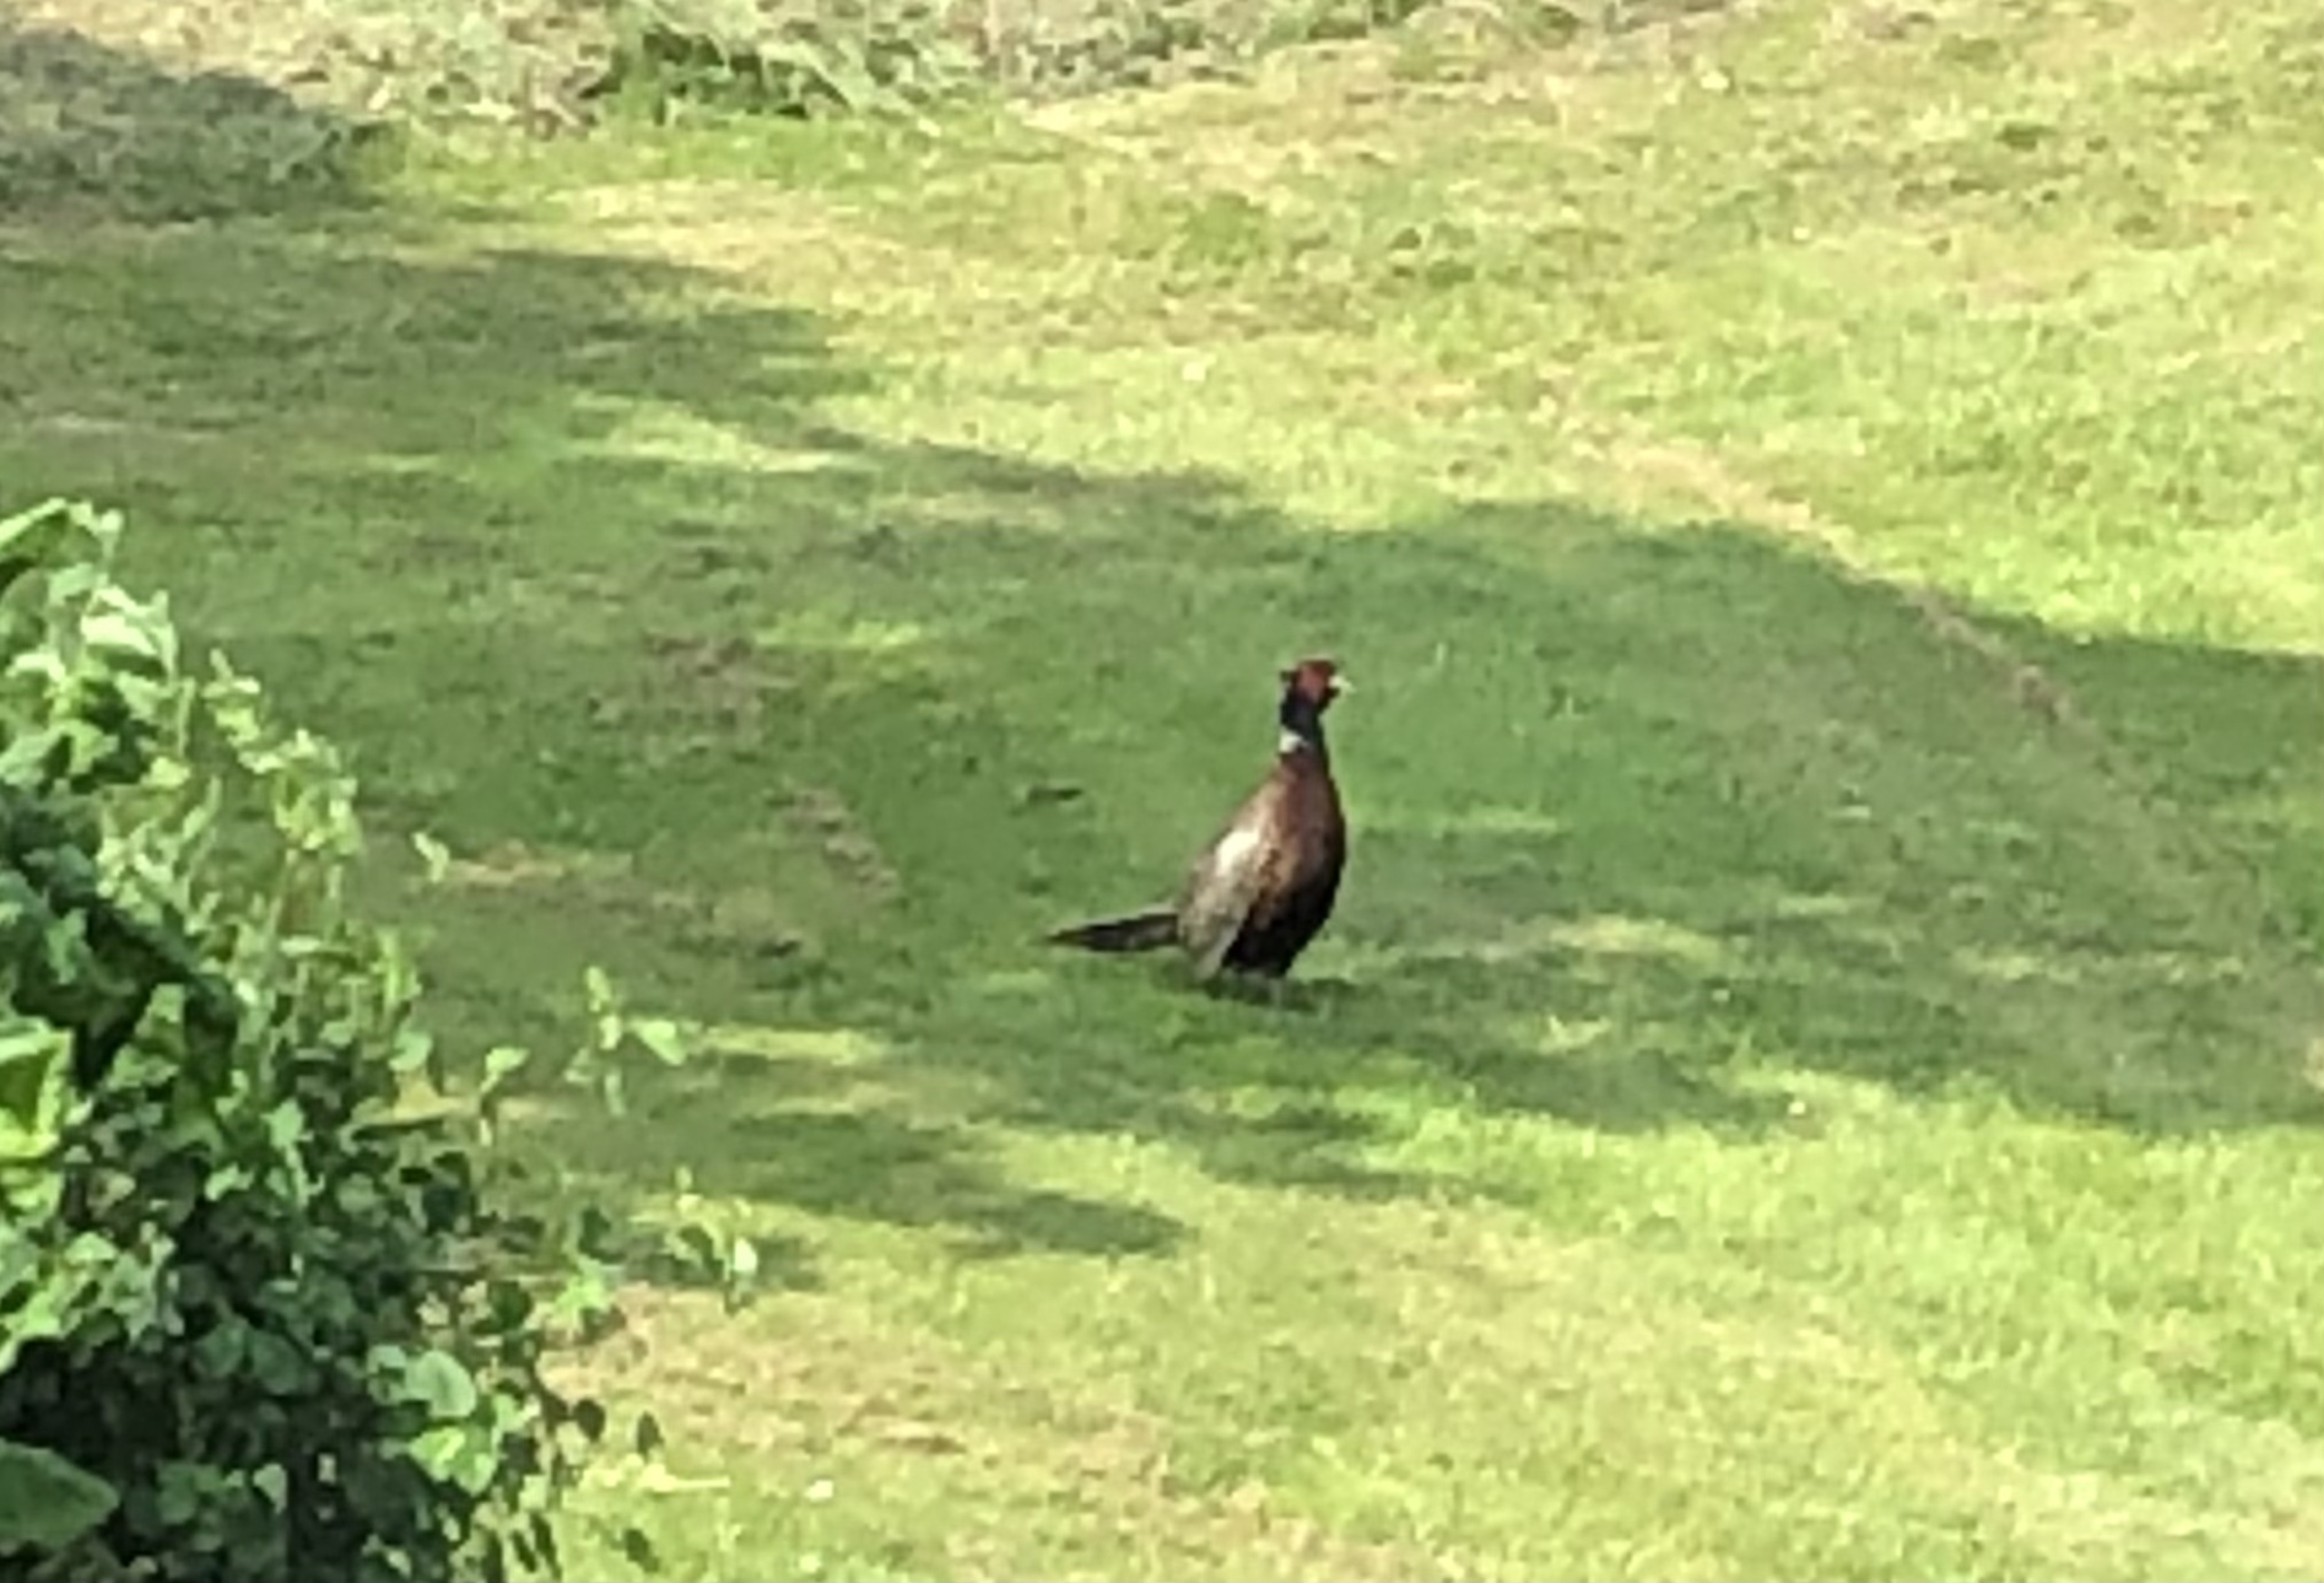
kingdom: Animalia
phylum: Chordata
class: Aves
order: Galliformes
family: Phasianidae
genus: Phasianus
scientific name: Phasianus colchicus
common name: Fasan
